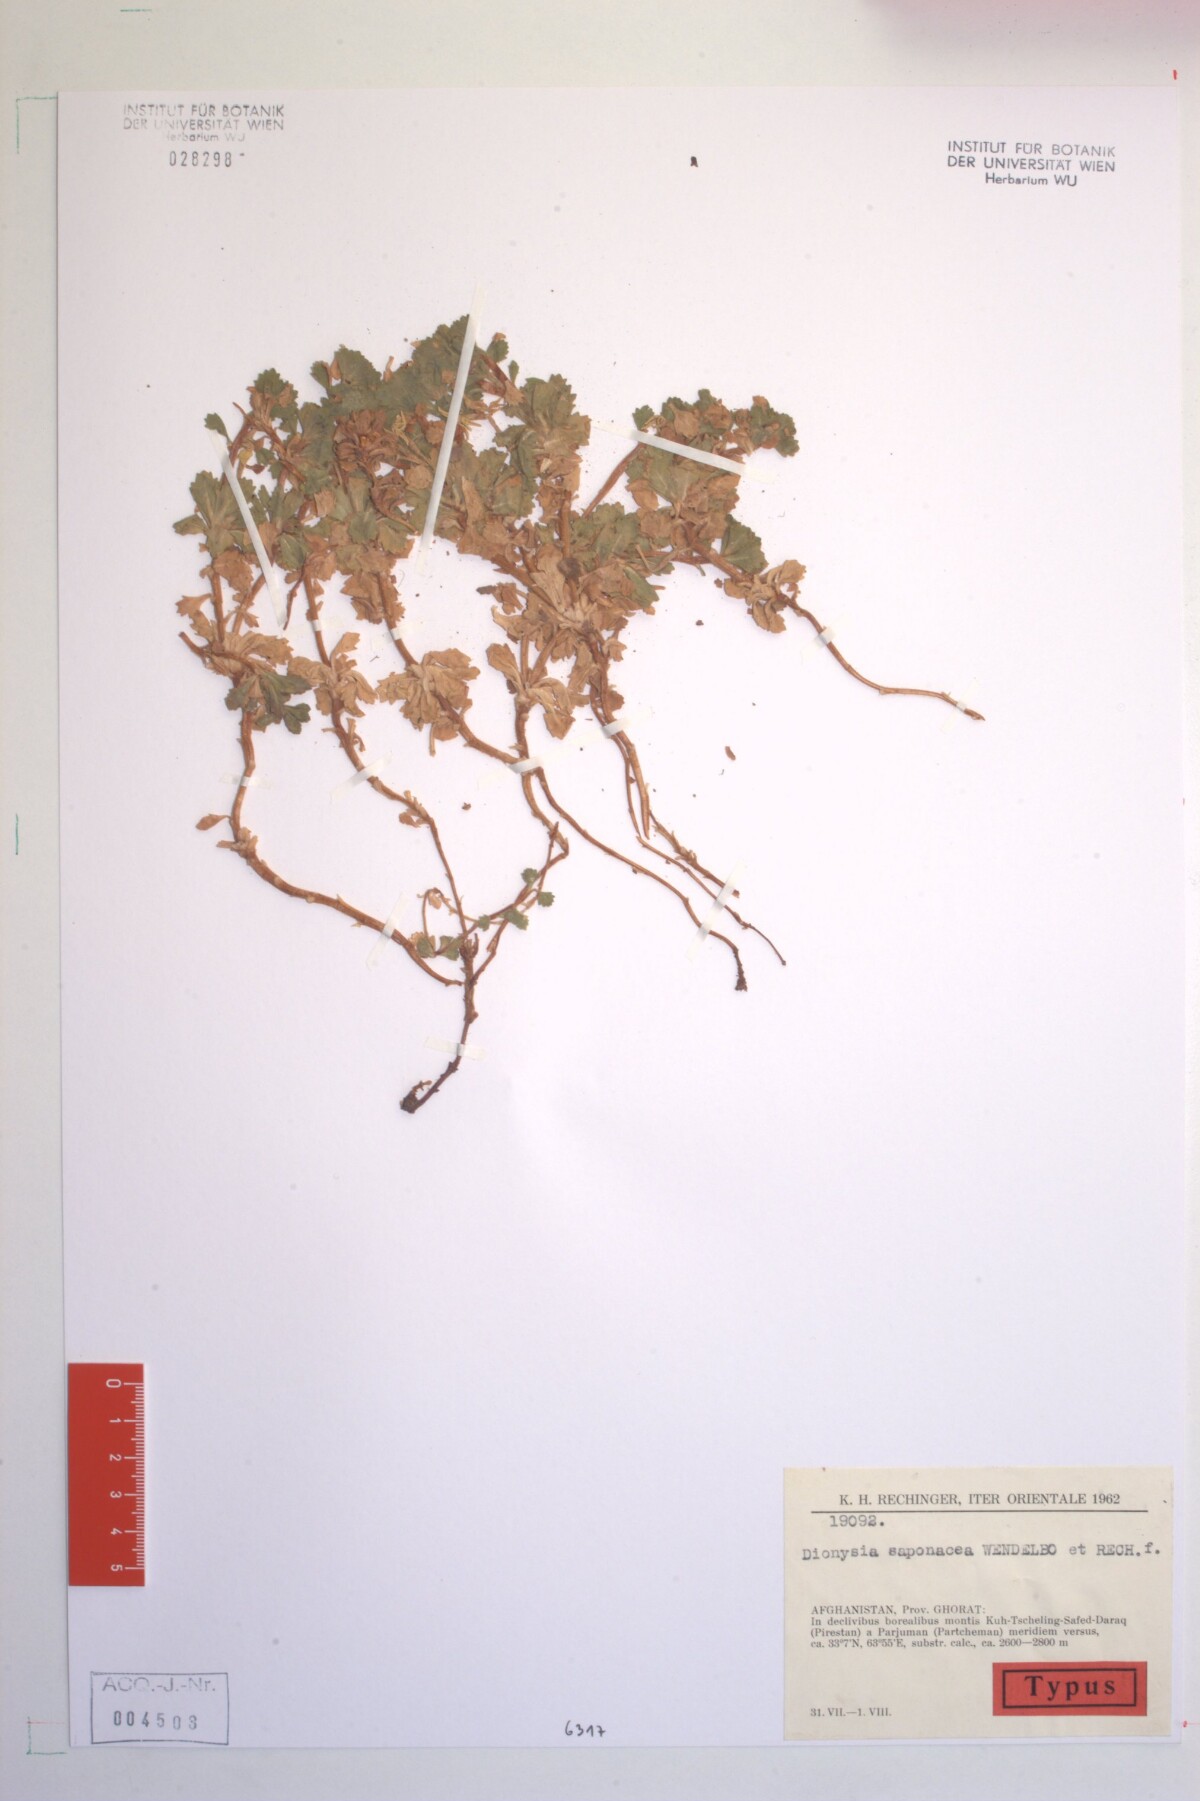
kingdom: Plantae
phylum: Tracheophyta
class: Magnoliopsida
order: Ericales
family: Primulaceae
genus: Dionysia
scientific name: Dionysia saponacea
